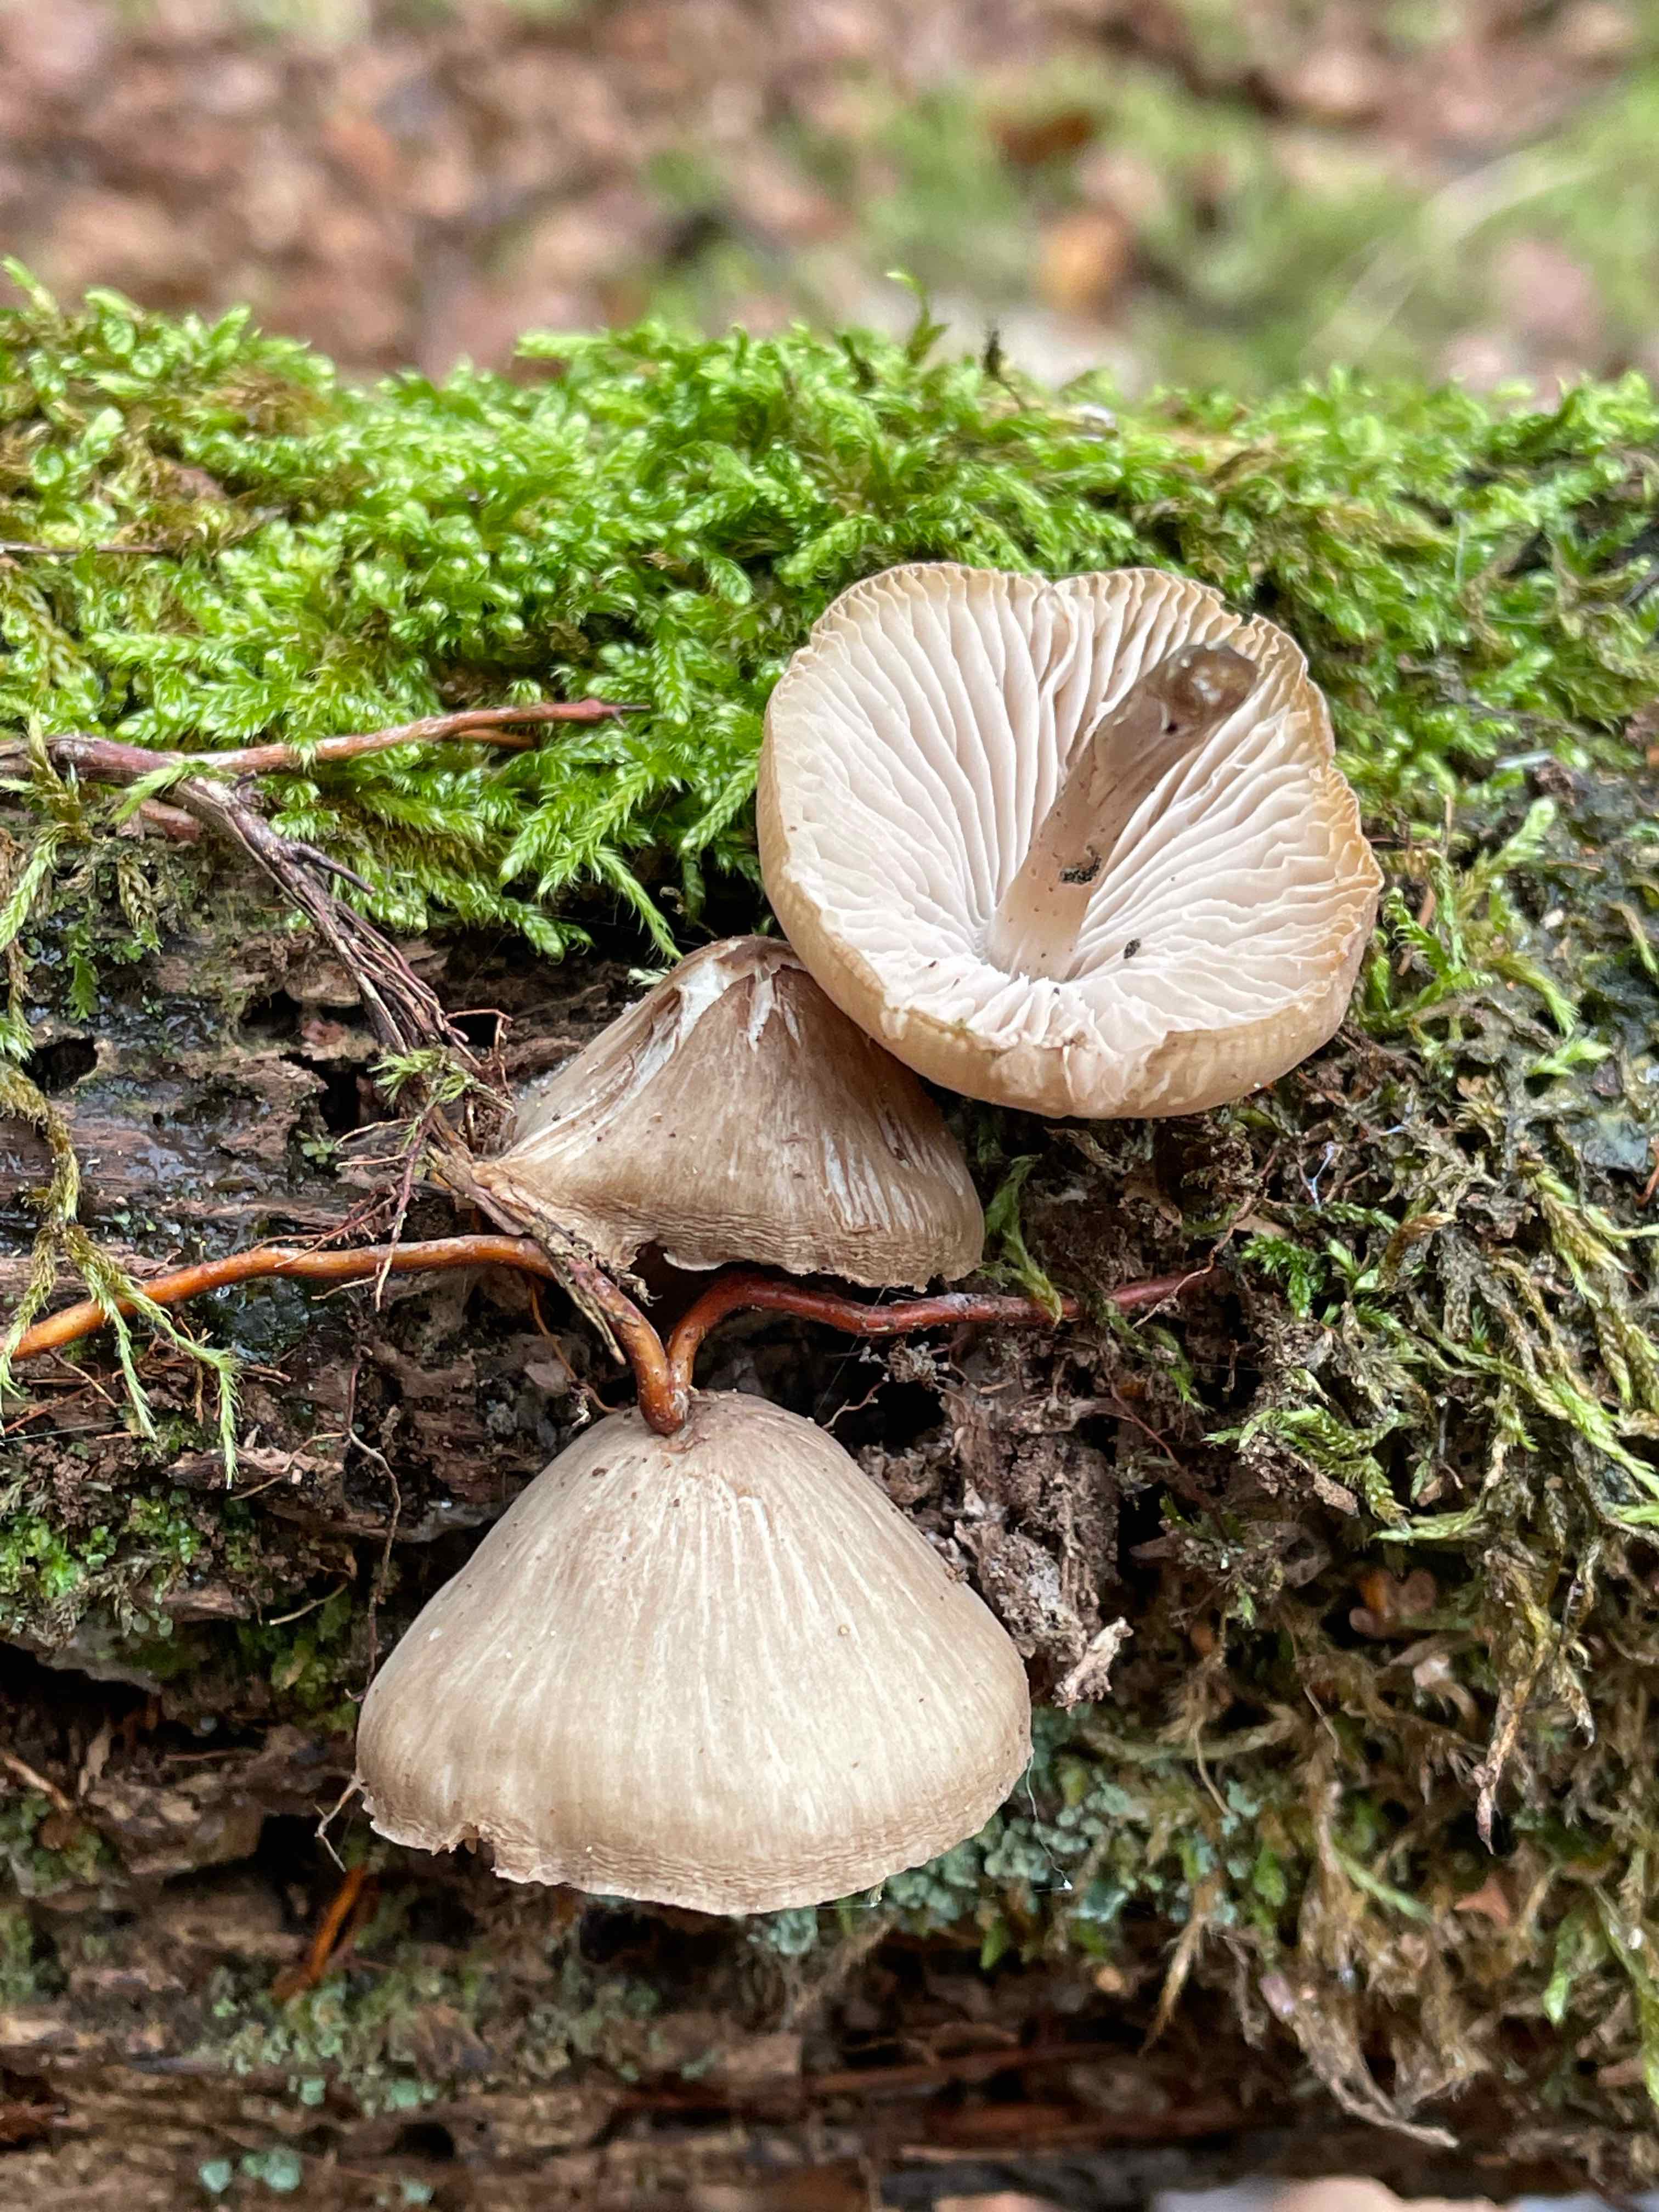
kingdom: Fungi
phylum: Basidiomycota
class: Agaricomycetes
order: Agaricales
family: Mycenaceae
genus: Mycena
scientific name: Mycena galericulata
